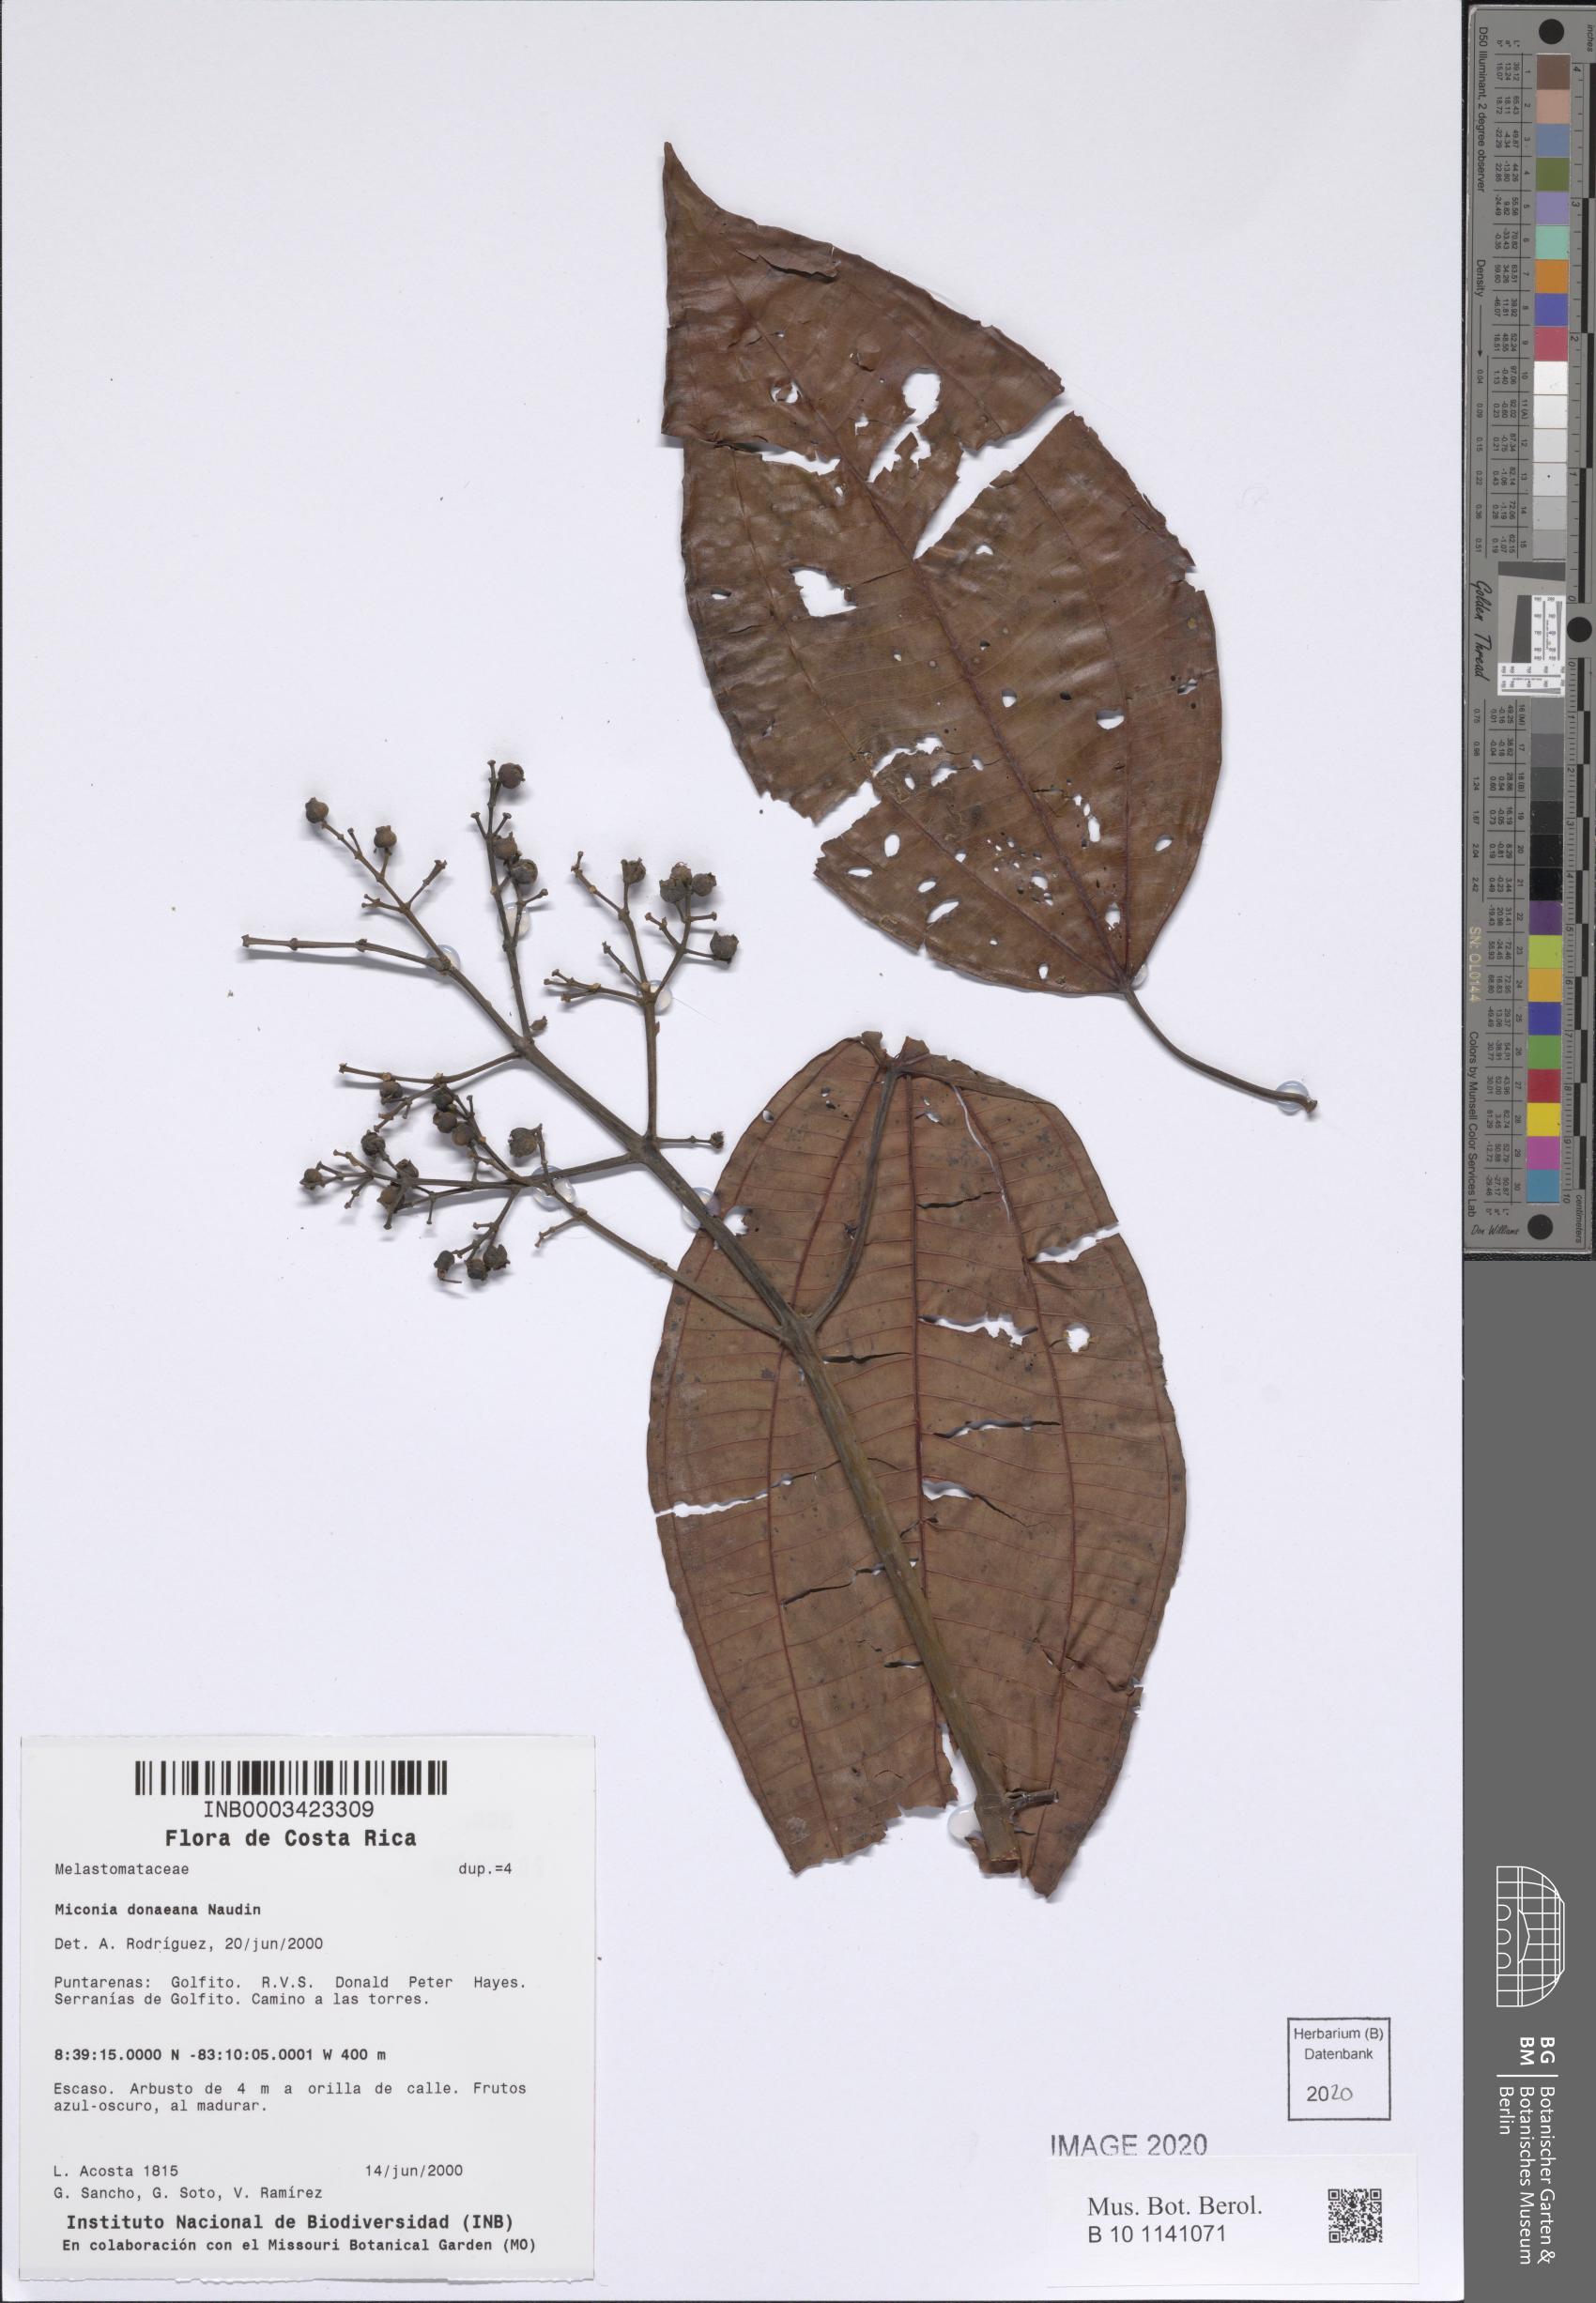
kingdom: Plantae
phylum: Tracheophyta
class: Magnoliopsida
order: Myrtales
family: Melastomataceae
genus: Miconia
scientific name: Miconia donaeana
